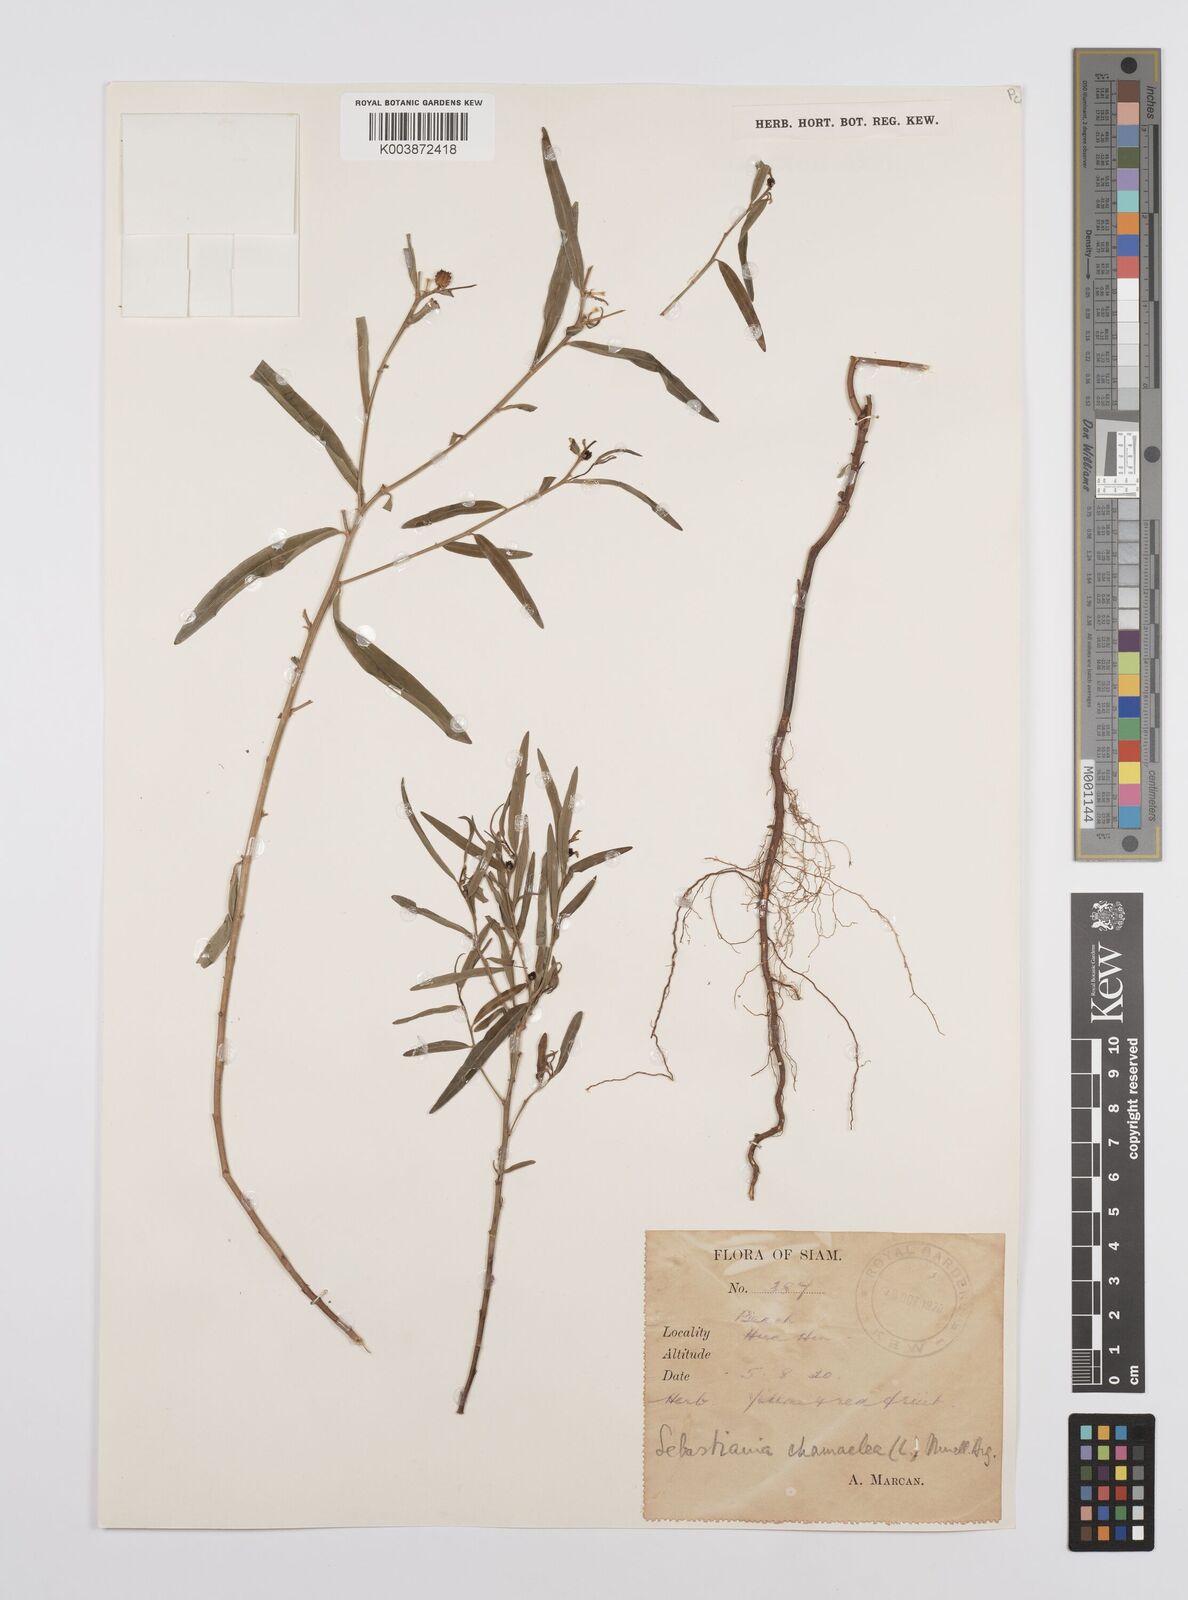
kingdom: Plantae
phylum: Tracheophyta
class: Magnoliopsida
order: Malpighiales
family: Euphorbiaceae
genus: Microstachys
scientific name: Microstachys chamaelea
